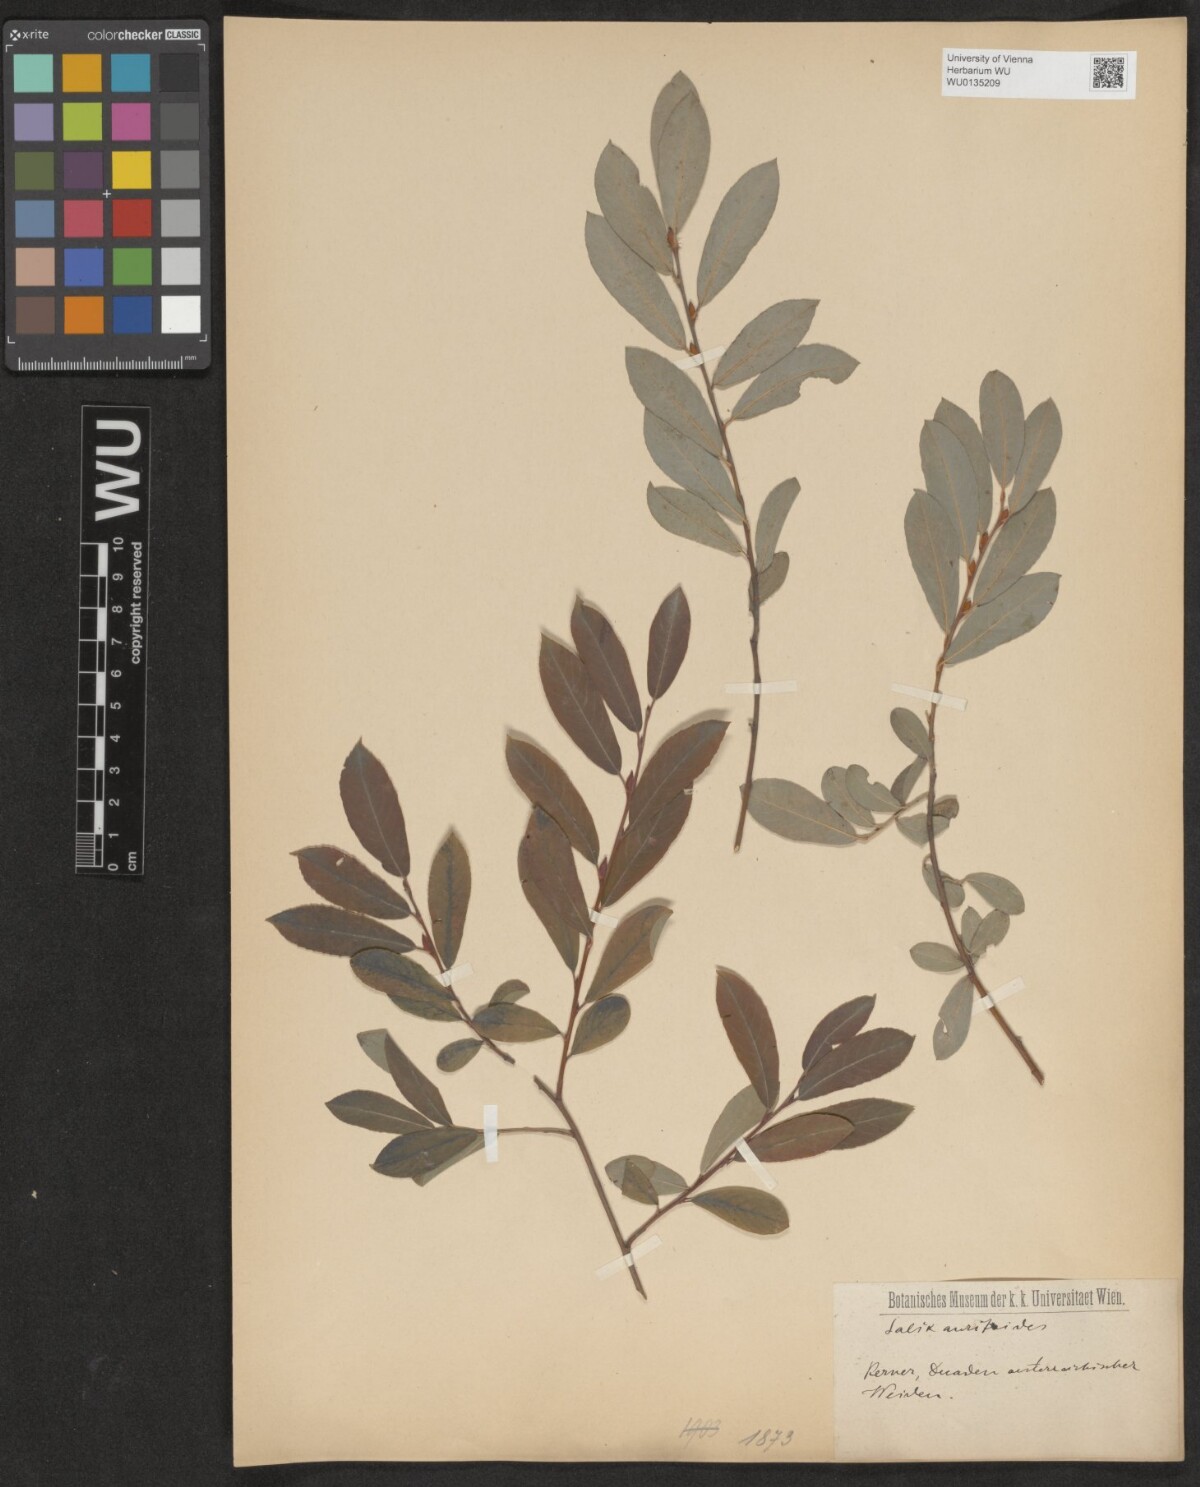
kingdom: Plantae
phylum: Tracheophyta
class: Magnoliopsida
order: Malpighiales
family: Salicaceae
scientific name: Salicaceae
